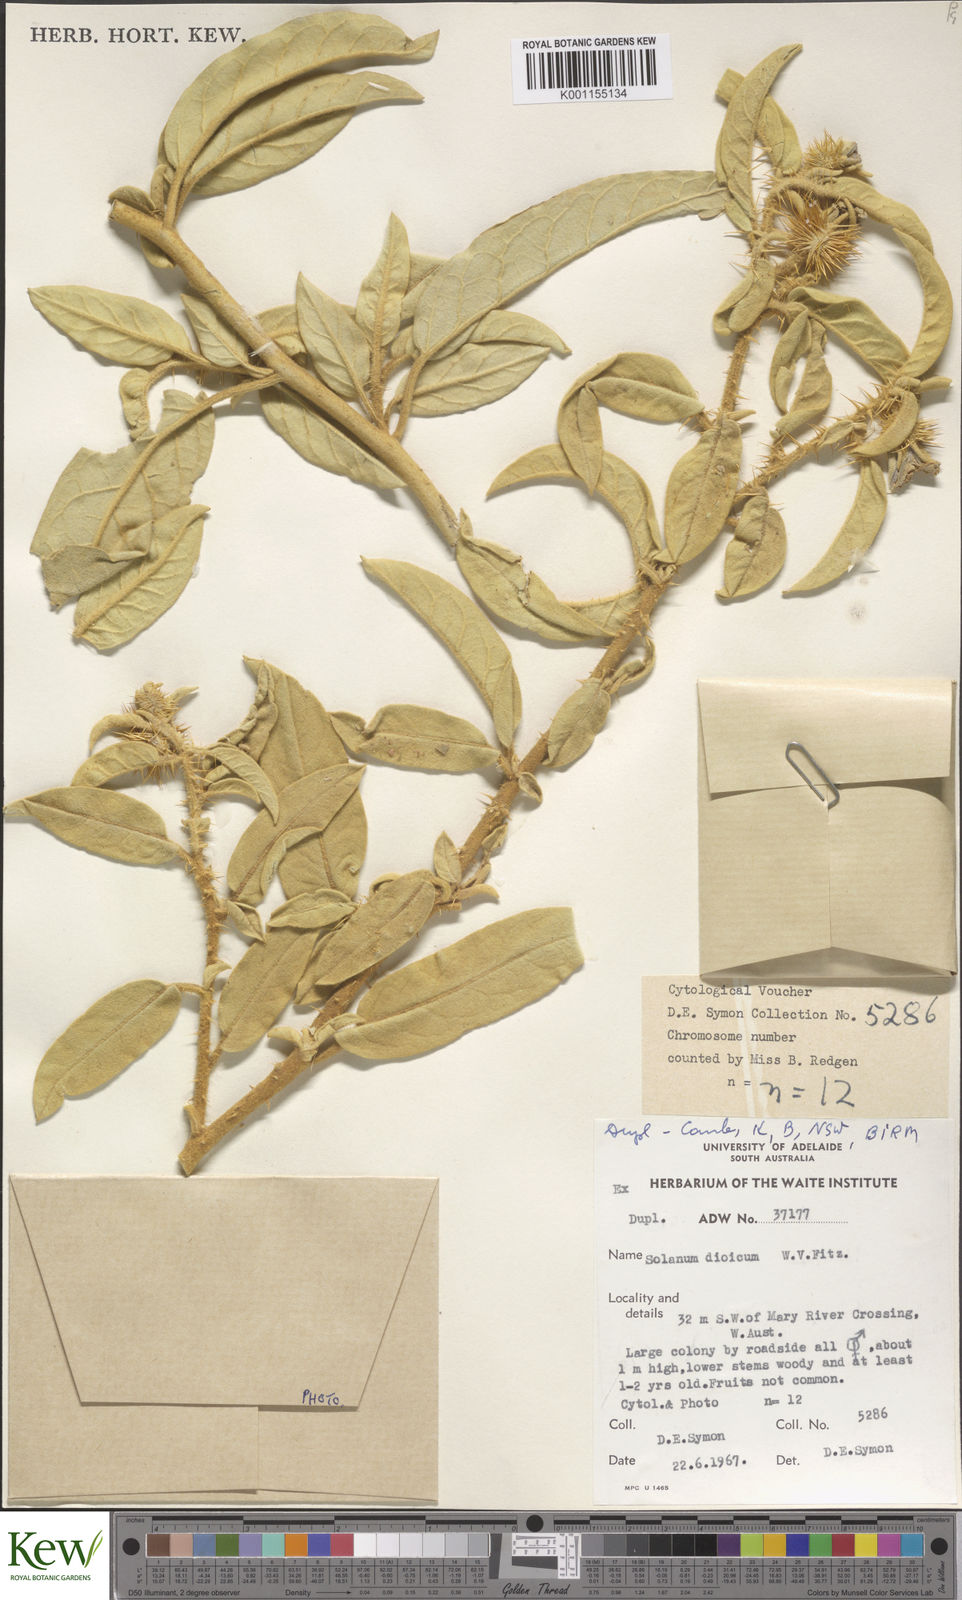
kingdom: Plantae
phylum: Tracheophyta
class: Magnoliopsida
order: Solanales
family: Solanaceae
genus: Solanum
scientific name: Solanum dioicum
